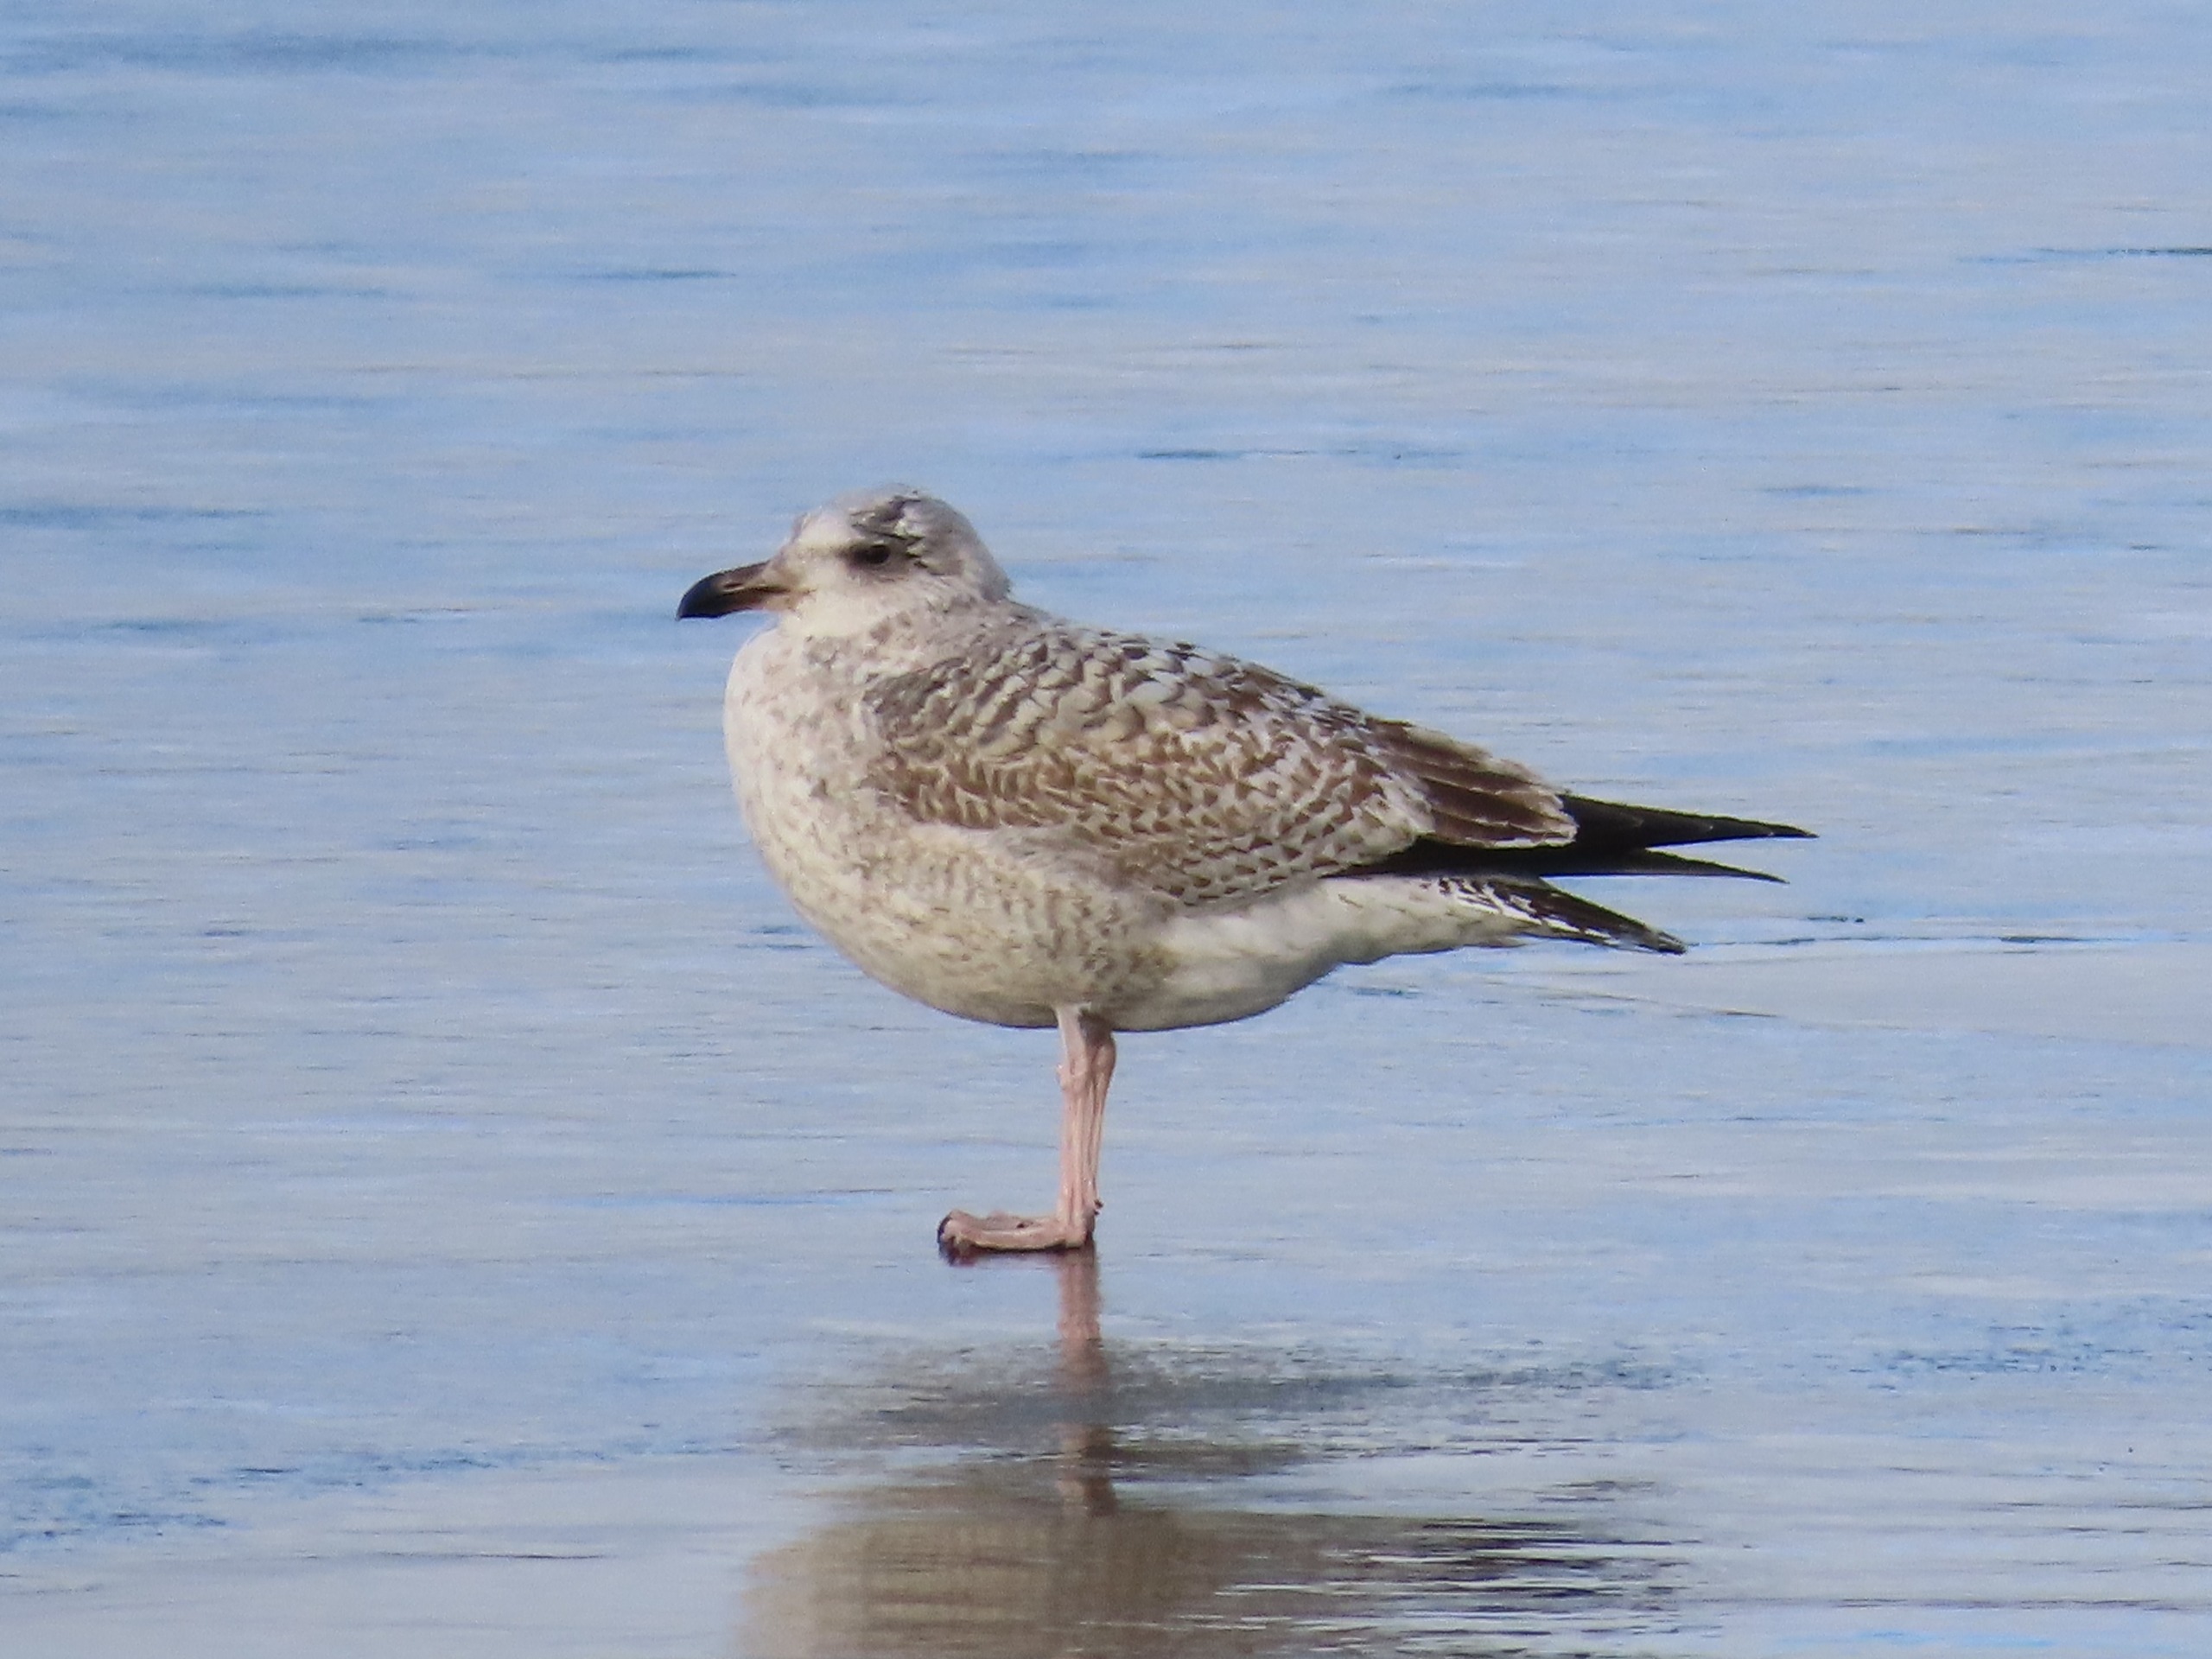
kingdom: Animalia
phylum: Chordata
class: Aves
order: Charadriiformes
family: Laridae
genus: Larus
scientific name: Larus marinus
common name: Svartbag
